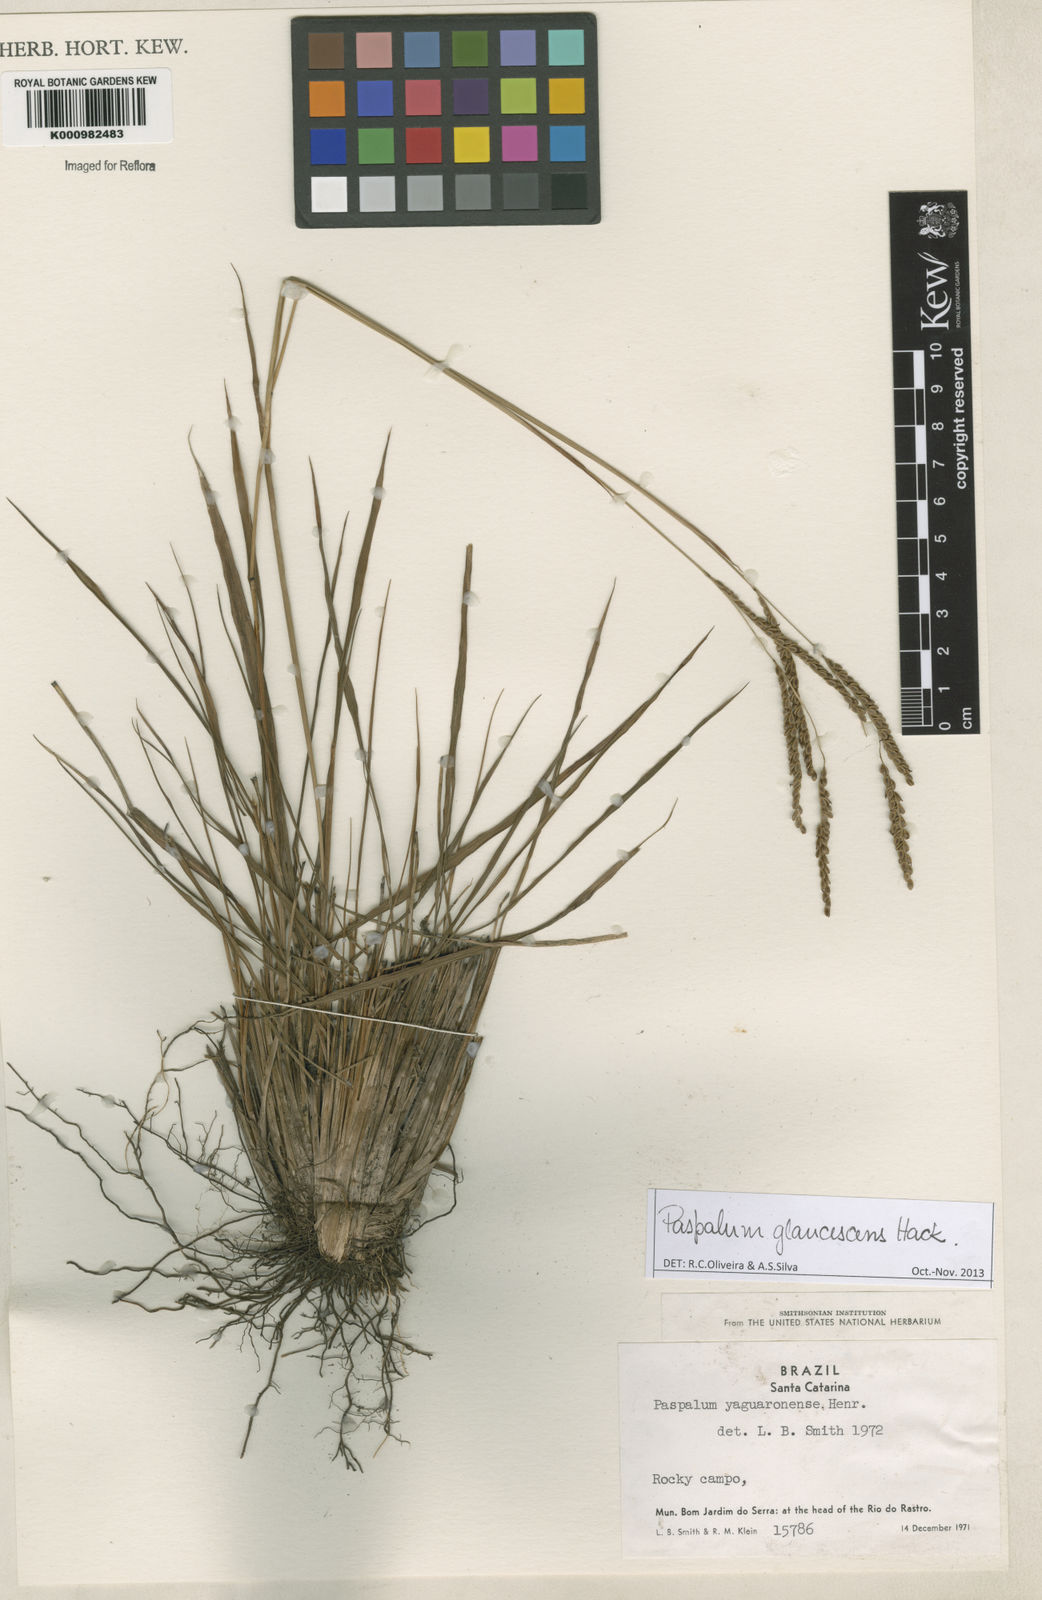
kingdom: Plantae
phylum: Tracheophyta
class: Liliopsida
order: Poales
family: Poaceae
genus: Paspalum
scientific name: Paspalum glaucescens
